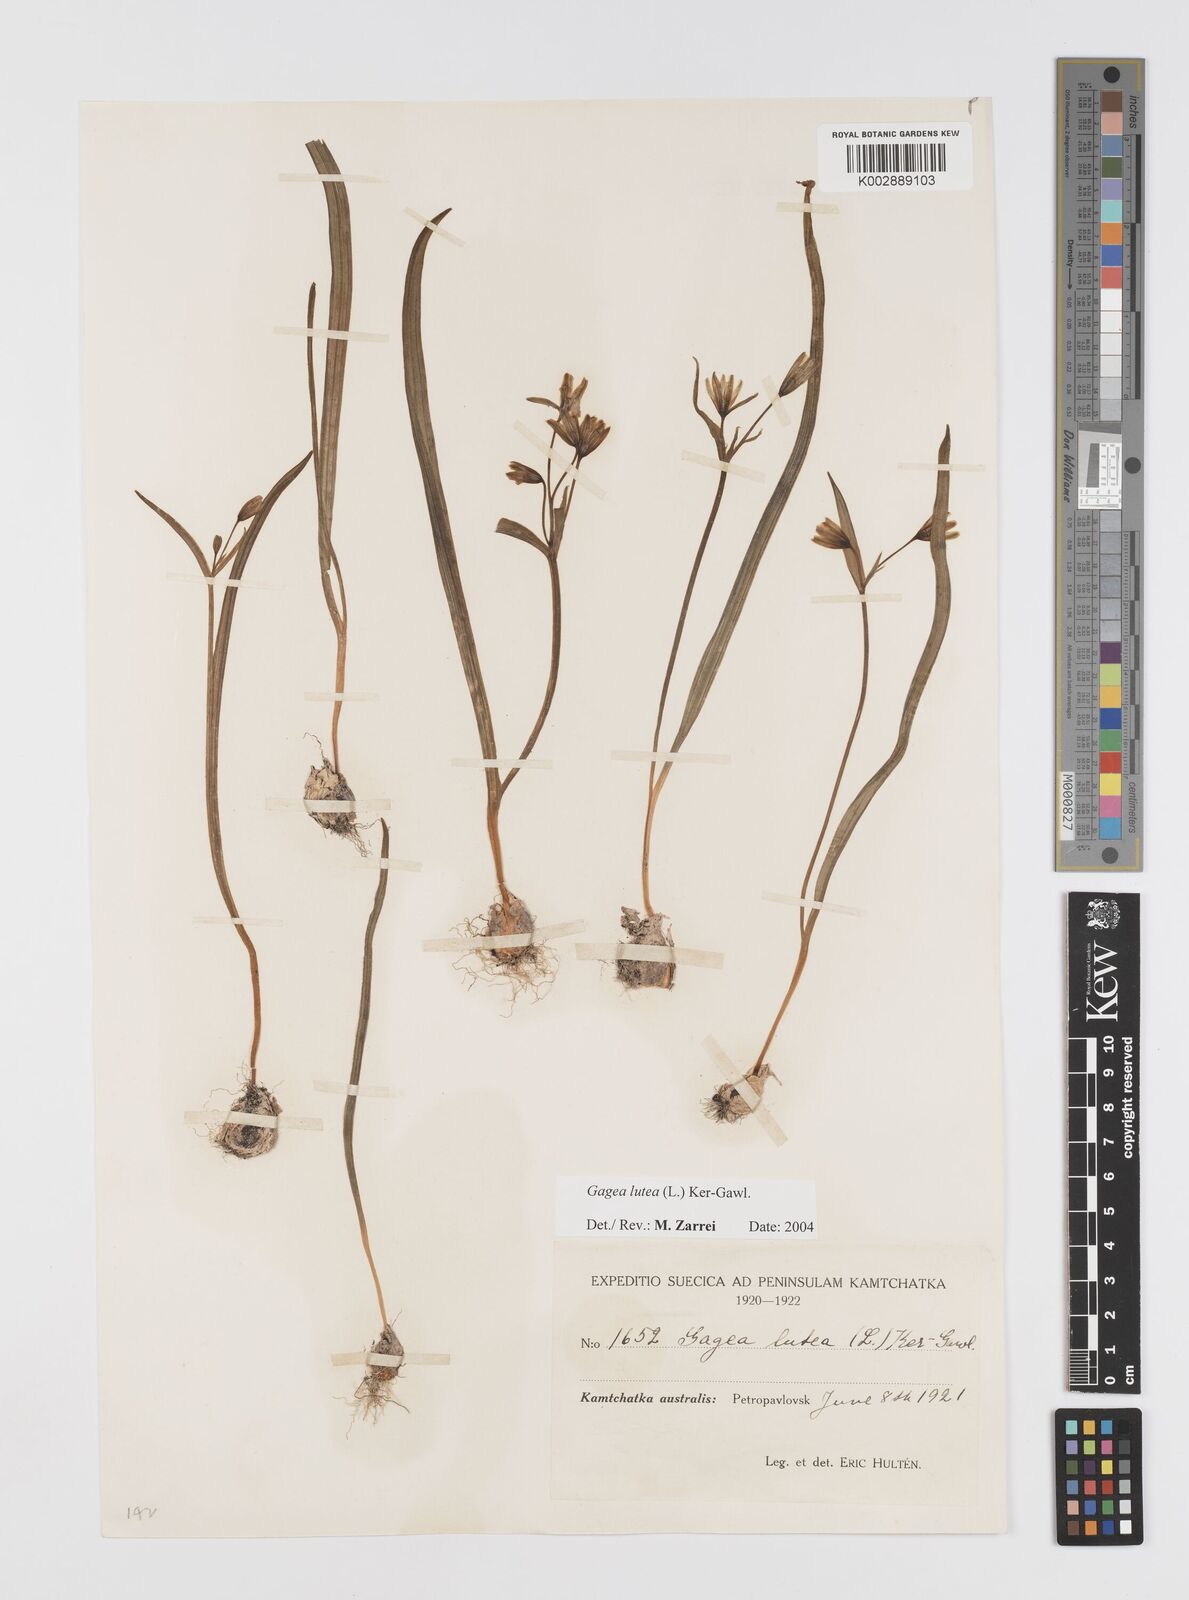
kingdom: Plantae
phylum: Tracheophyta
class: Liliopsida
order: Liliales
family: Liliaceae
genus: Gagea
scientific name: Gagea lutea
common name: Yellow star-of-bethlehem
